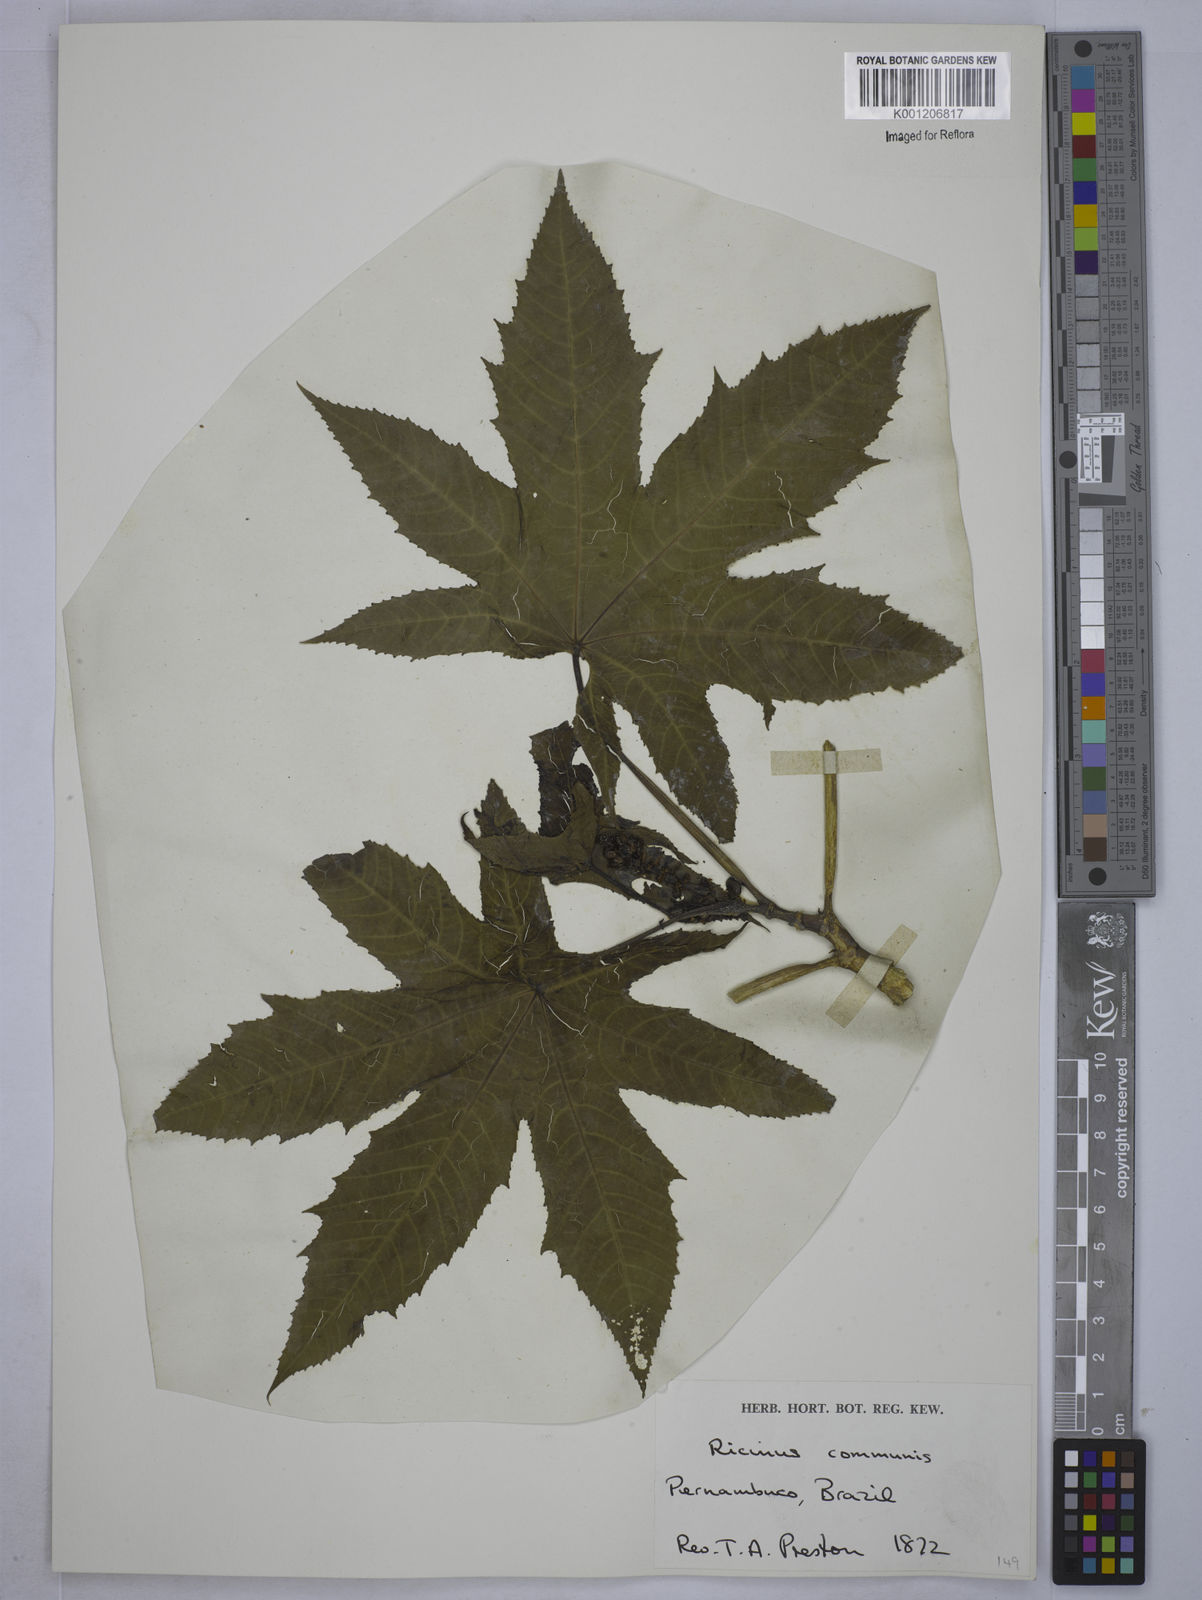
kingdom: Plantae
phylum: Tracheophyta
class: Magnoliopsida
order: Malpighiales
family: Euphorbiaceae
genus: Ricinus
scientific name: Ricinus communis
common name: Castor-oil-plant
